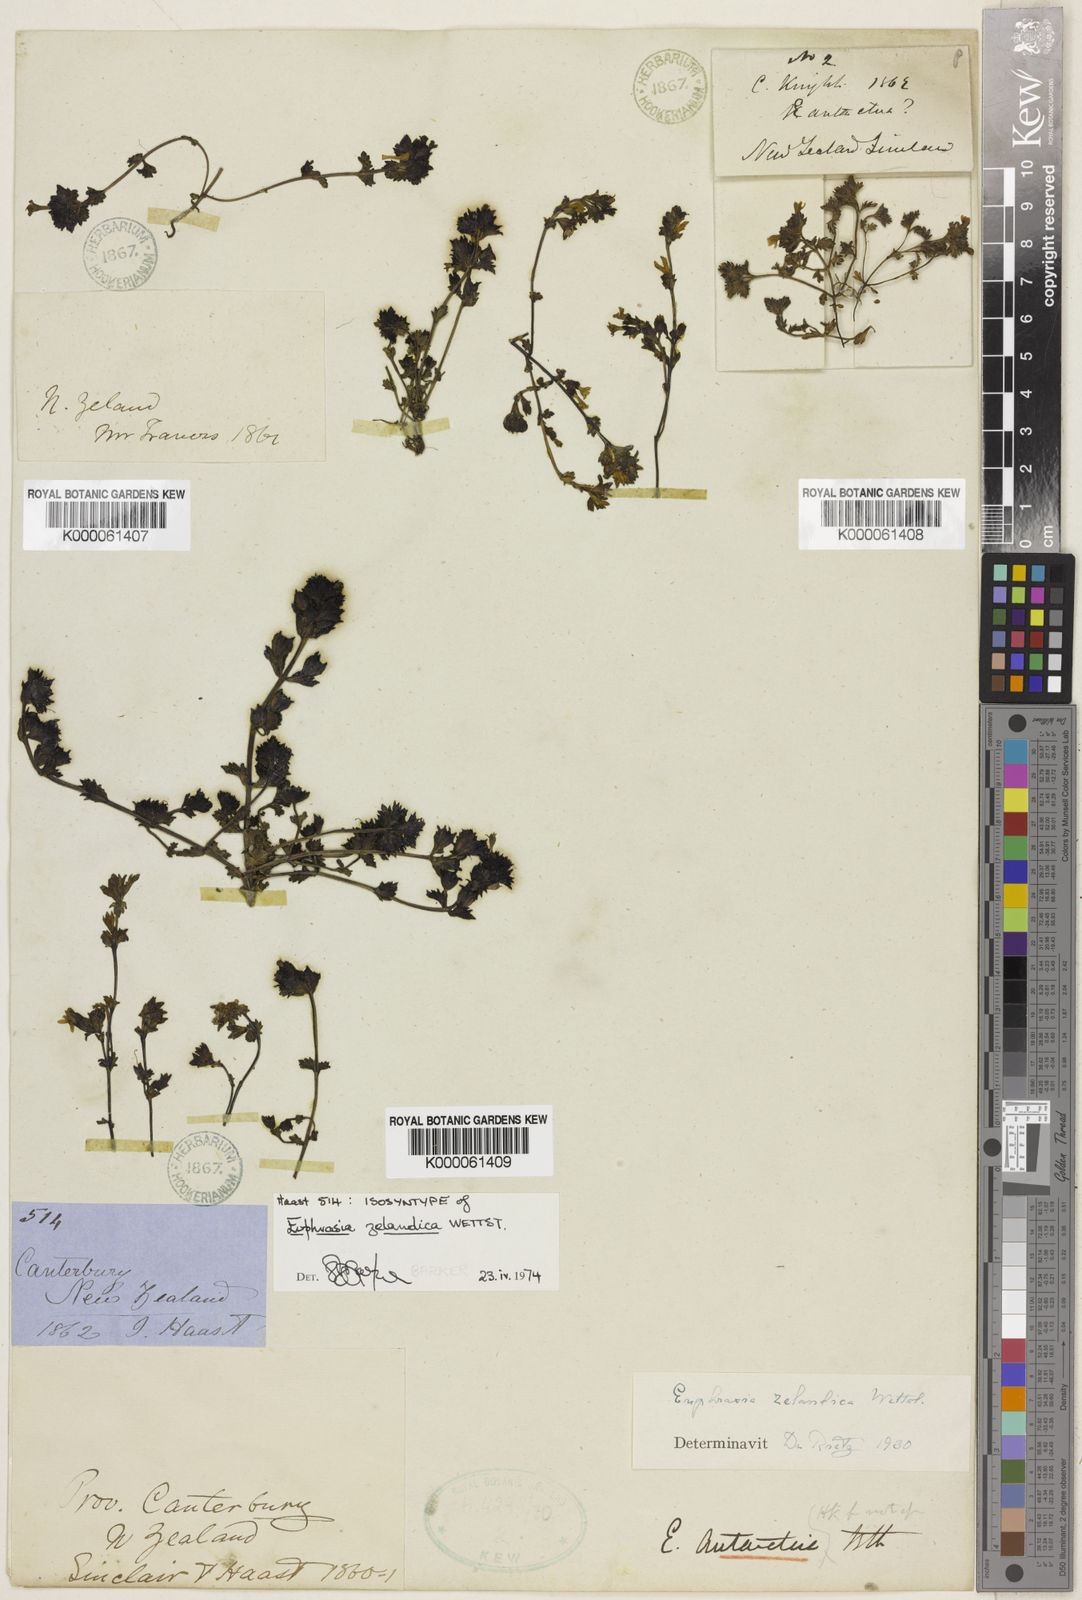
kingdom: Plantae
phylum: Tracheophyta
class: Magnoliopsida
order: Lamiales
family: Orobanchaceae
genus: Euphrasia
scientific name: Euphrasia zelandica
